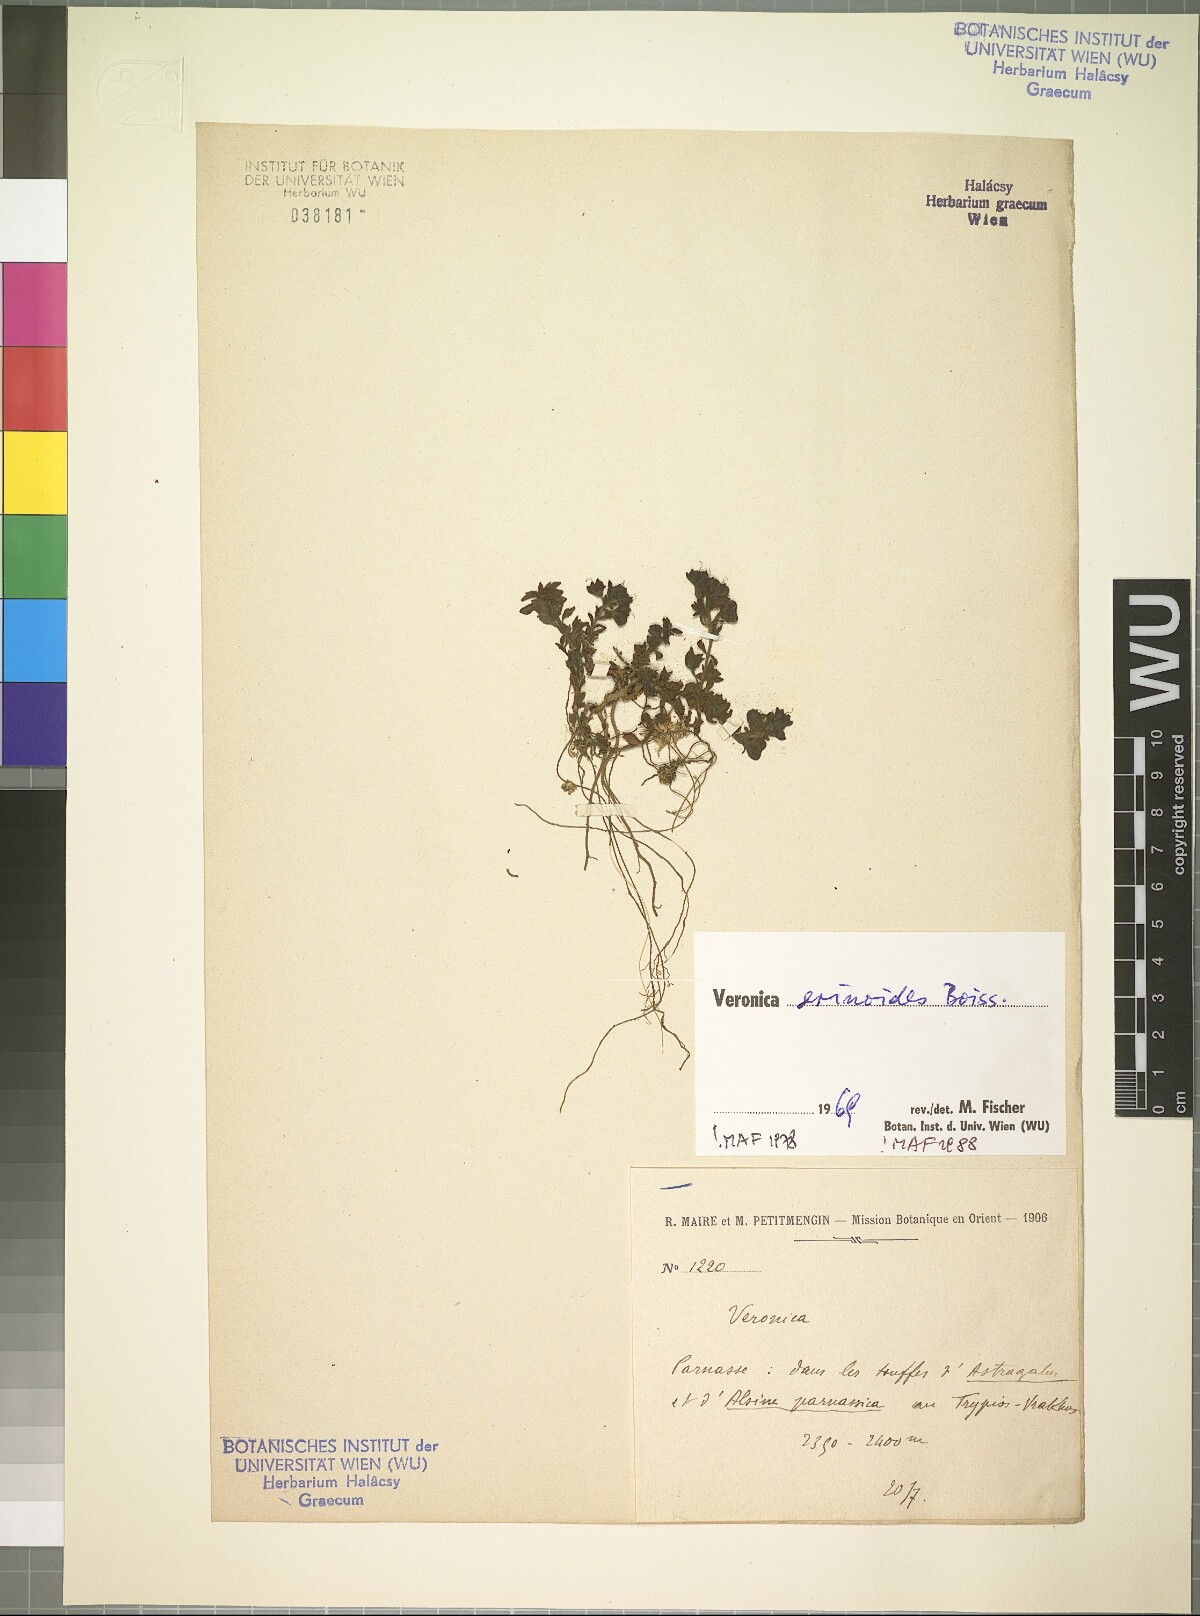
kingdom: Plantae
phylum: Tracheophyta
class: Magnoliopsida
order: Lamiales
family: Plantaginaceae
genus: Veronica
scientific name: Veronica erinoides
